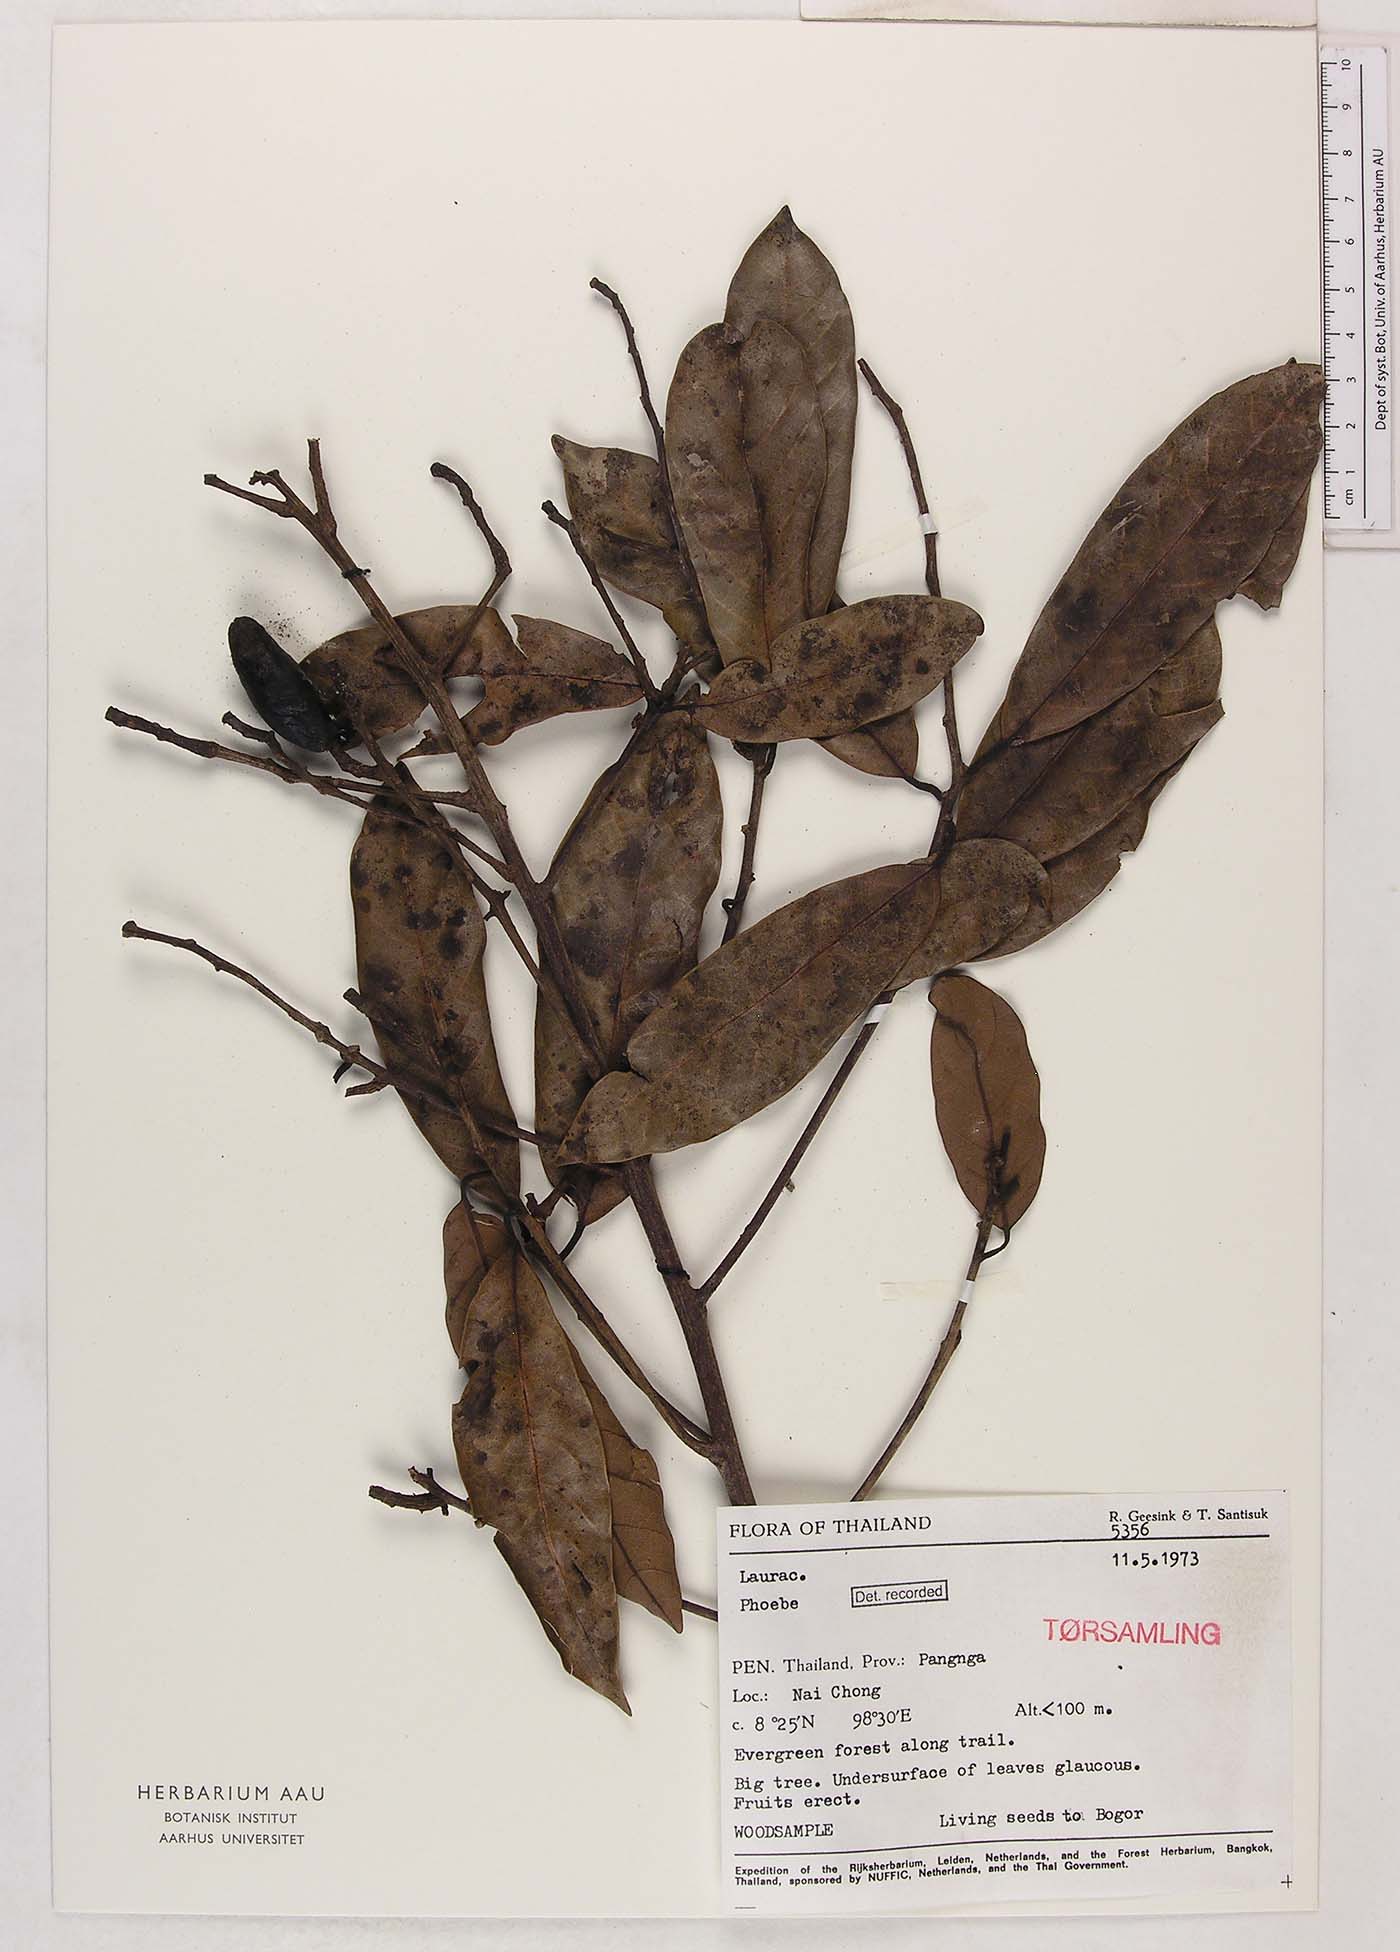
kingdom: Plantae
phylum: Tracheophyta
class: Magnoliopsida
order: Laurales
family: Lauraceae
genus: Phoebe
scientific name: Phoebe
